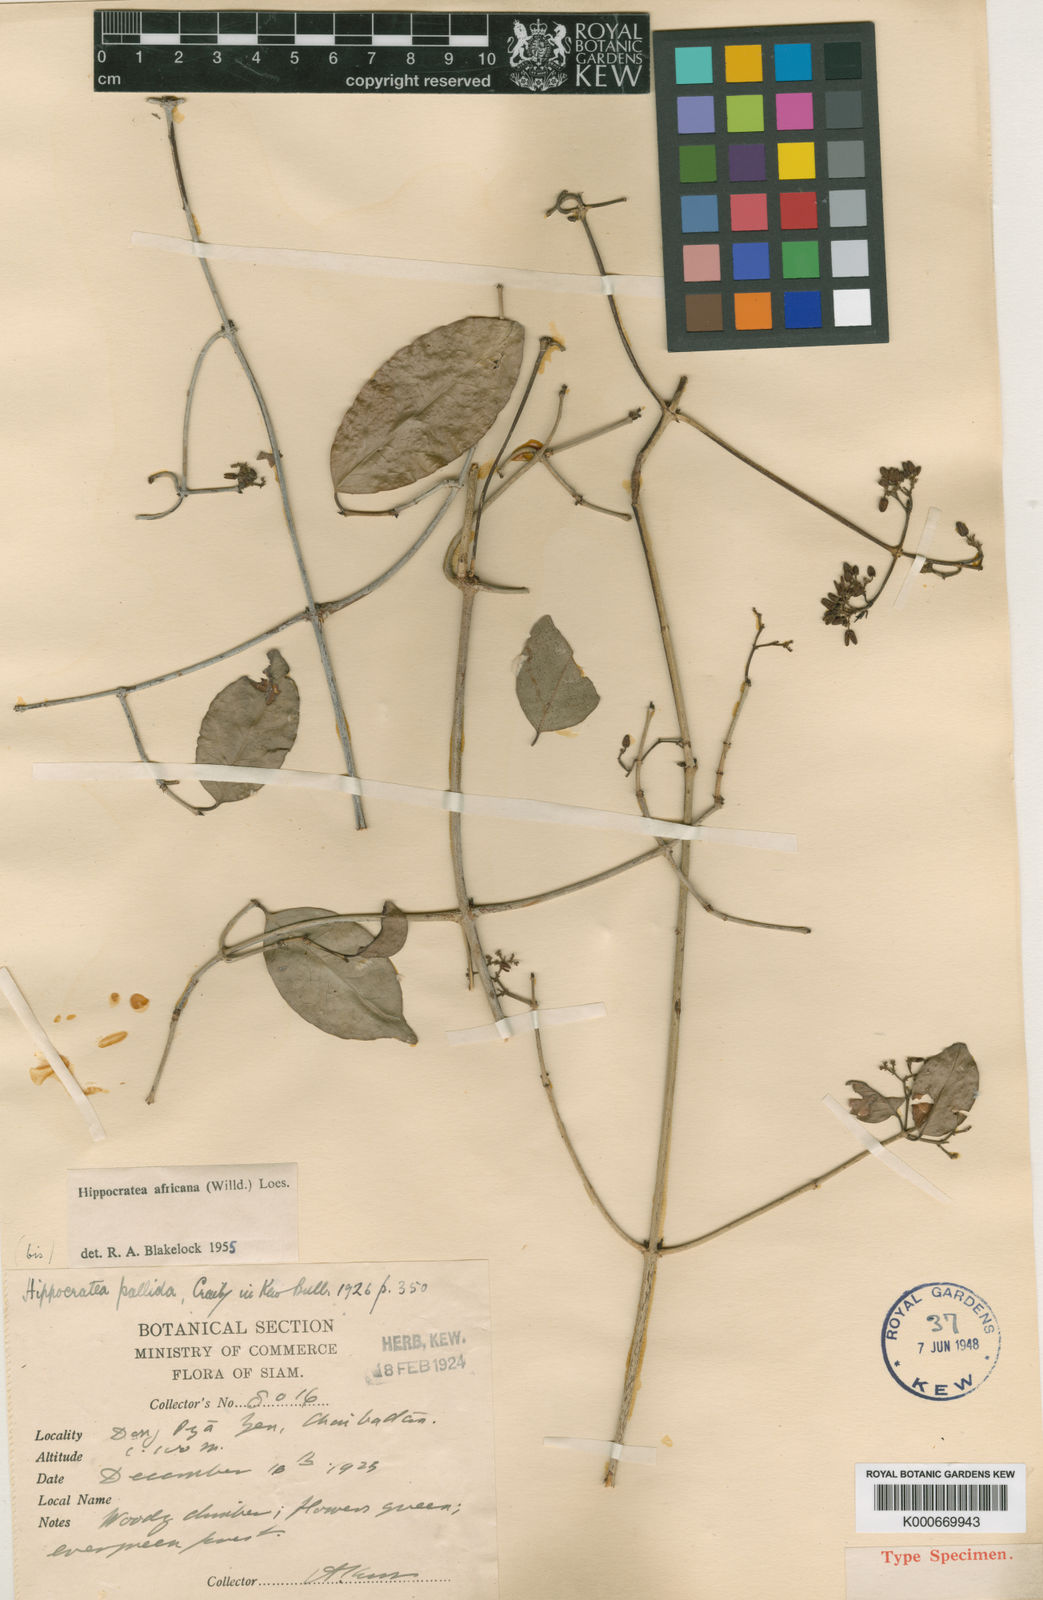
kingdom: Plantae
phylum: Tracheophyta
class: Magnoliopsida
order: Celastrales
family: Celastraceae
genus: Loeseneriella
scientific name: Loeseneriella
